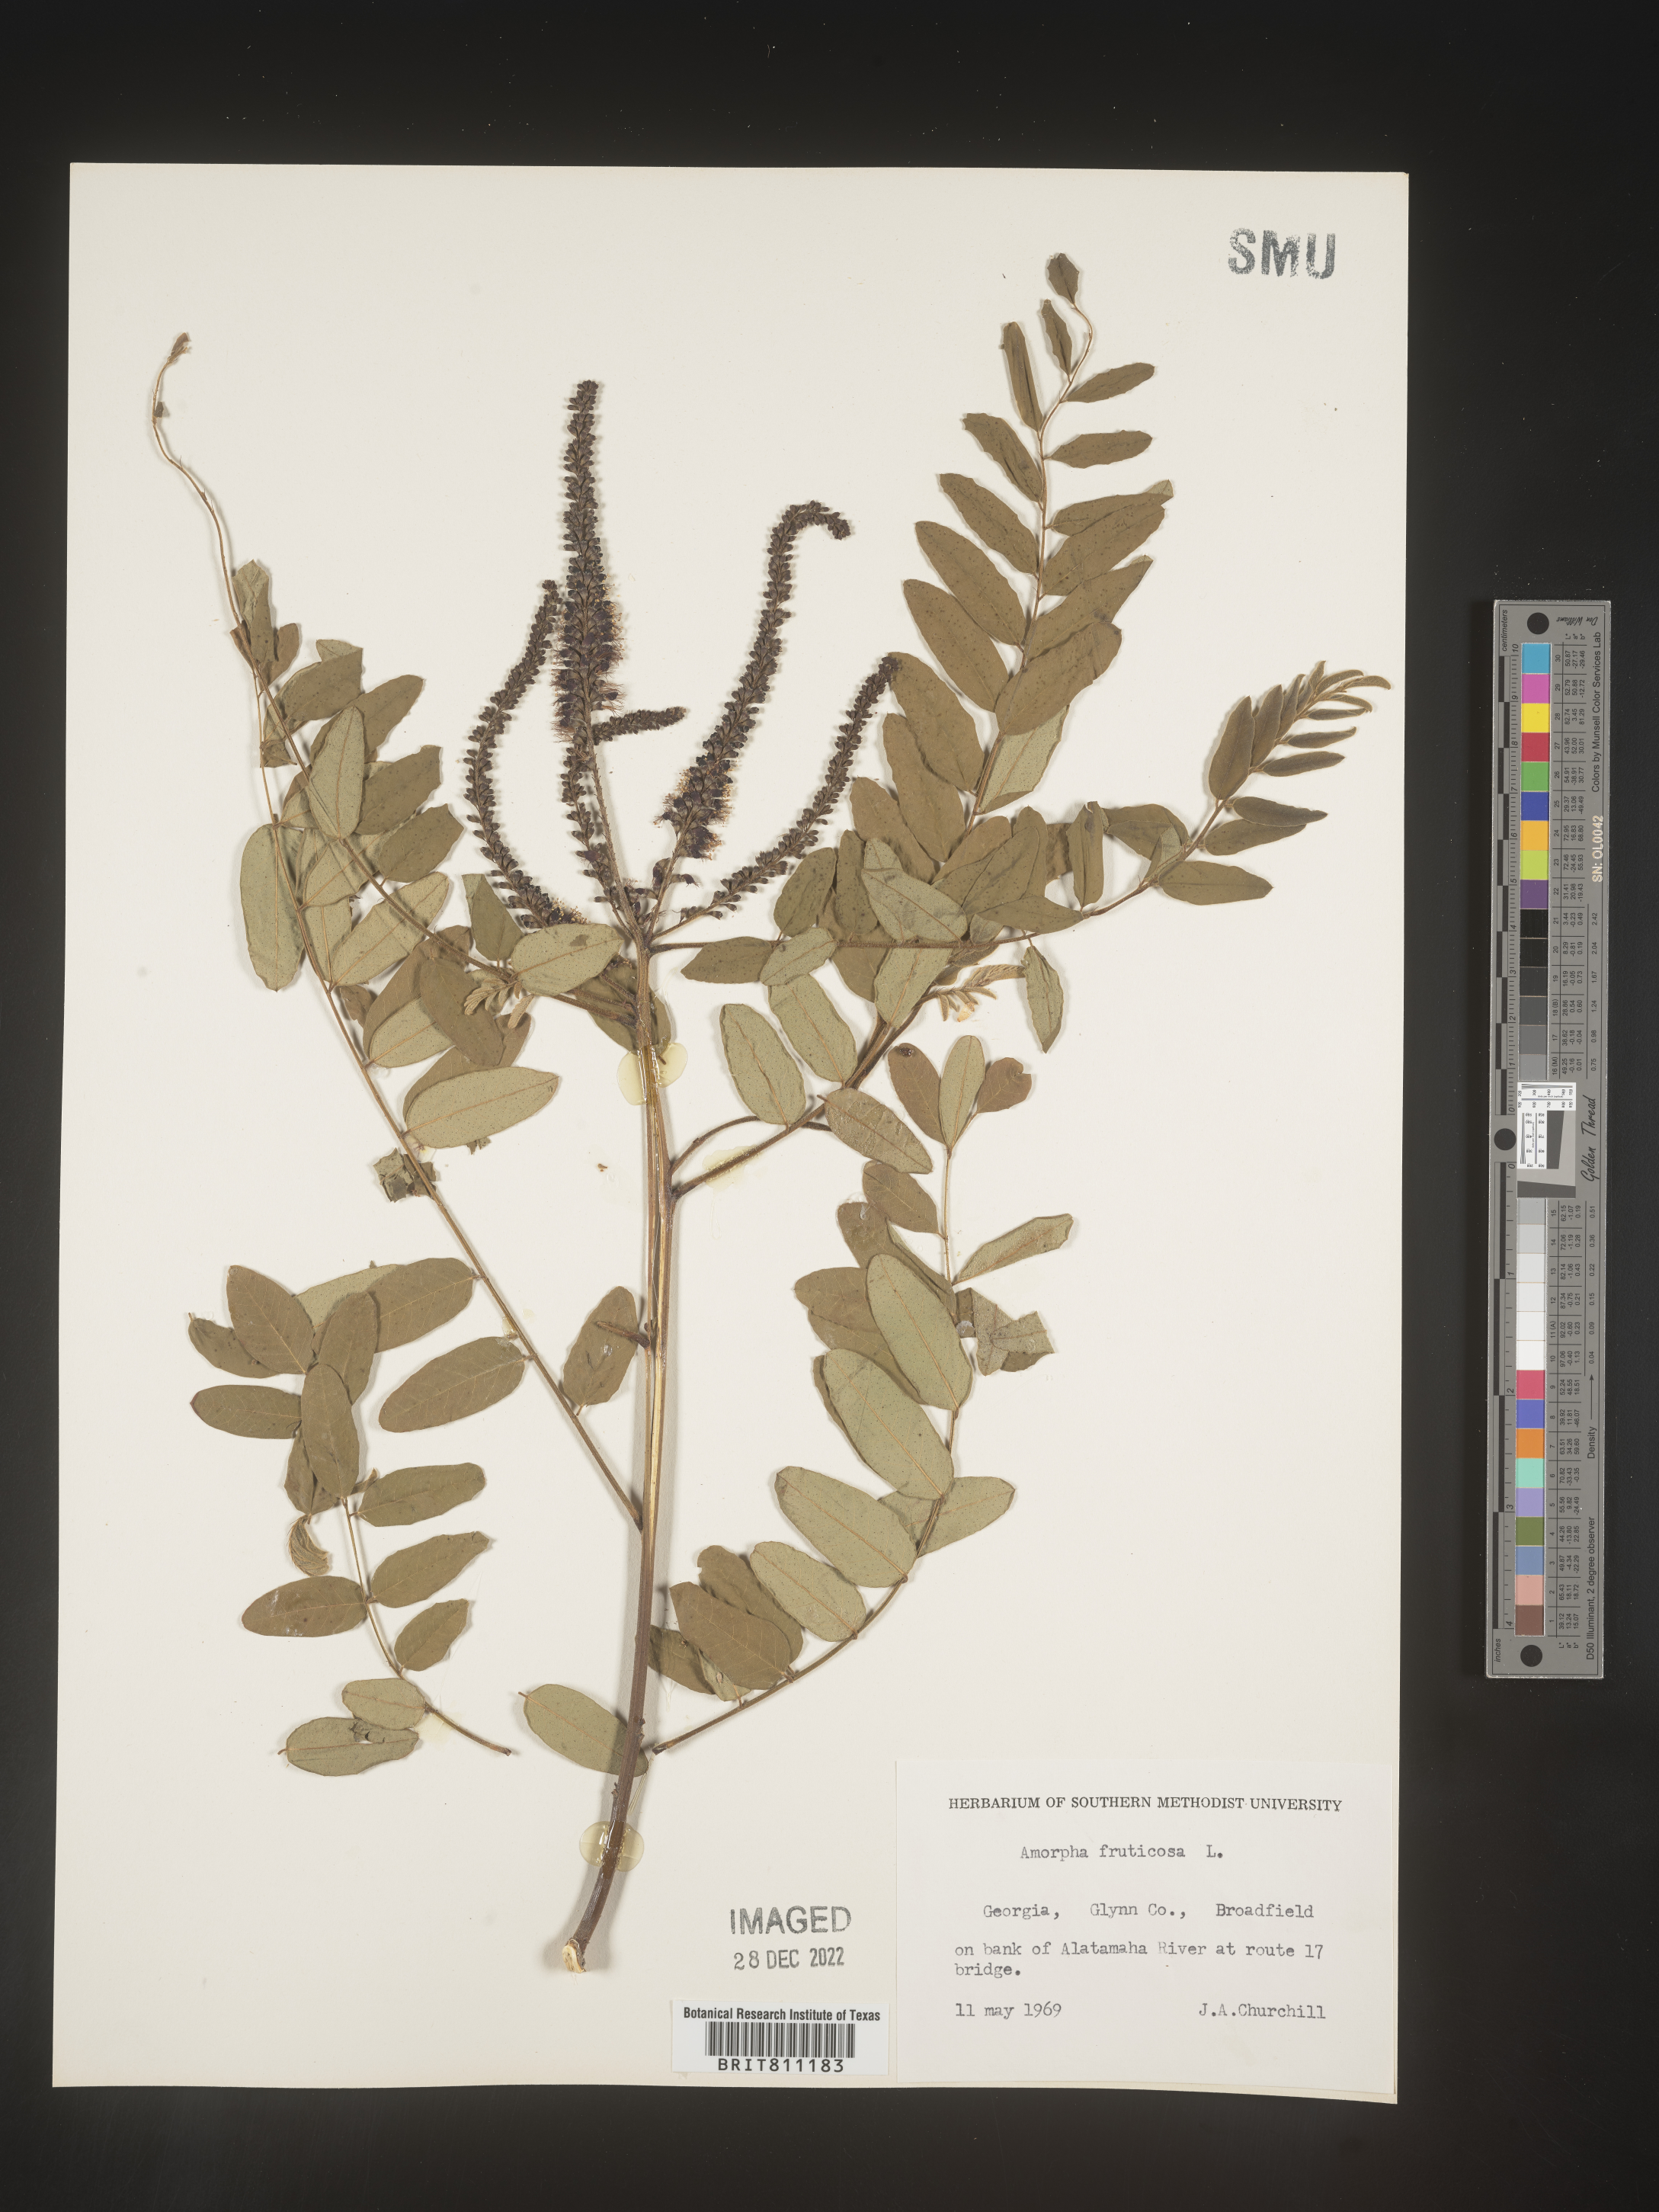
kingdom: Plantae
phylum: Tracheophyta
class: Magnoliopsida
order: Fabales
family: Fabaceae
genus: Amorpha
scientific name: Amorpha fruticosa
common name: False indigo
